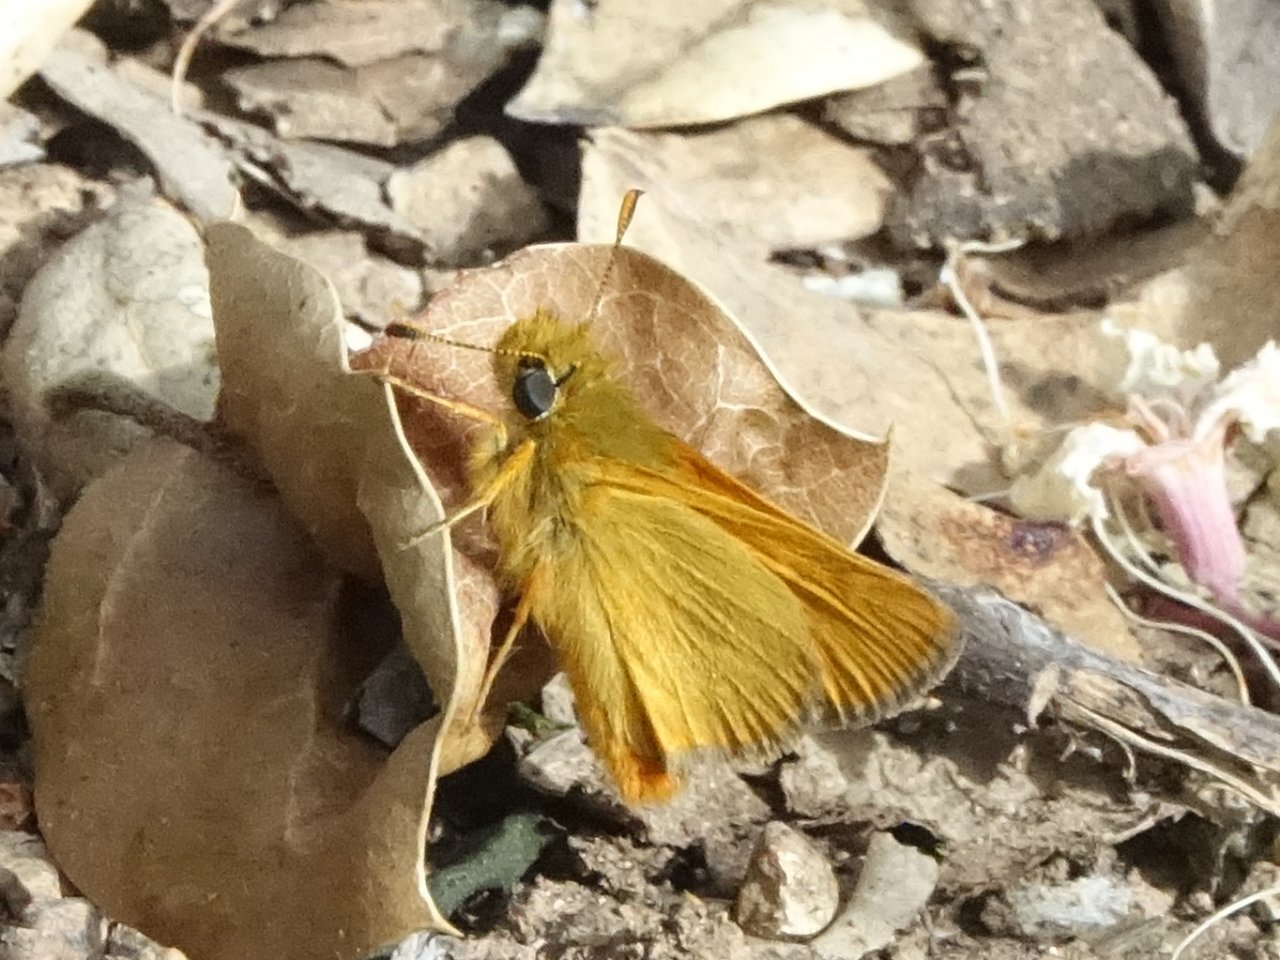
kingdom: Animalia
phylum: Arthropoda
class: Insecta
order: Lepidoptera
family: Hesperiidae
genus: Ochlodes
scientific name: Ochlodes agricola
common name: Rural Skipper
